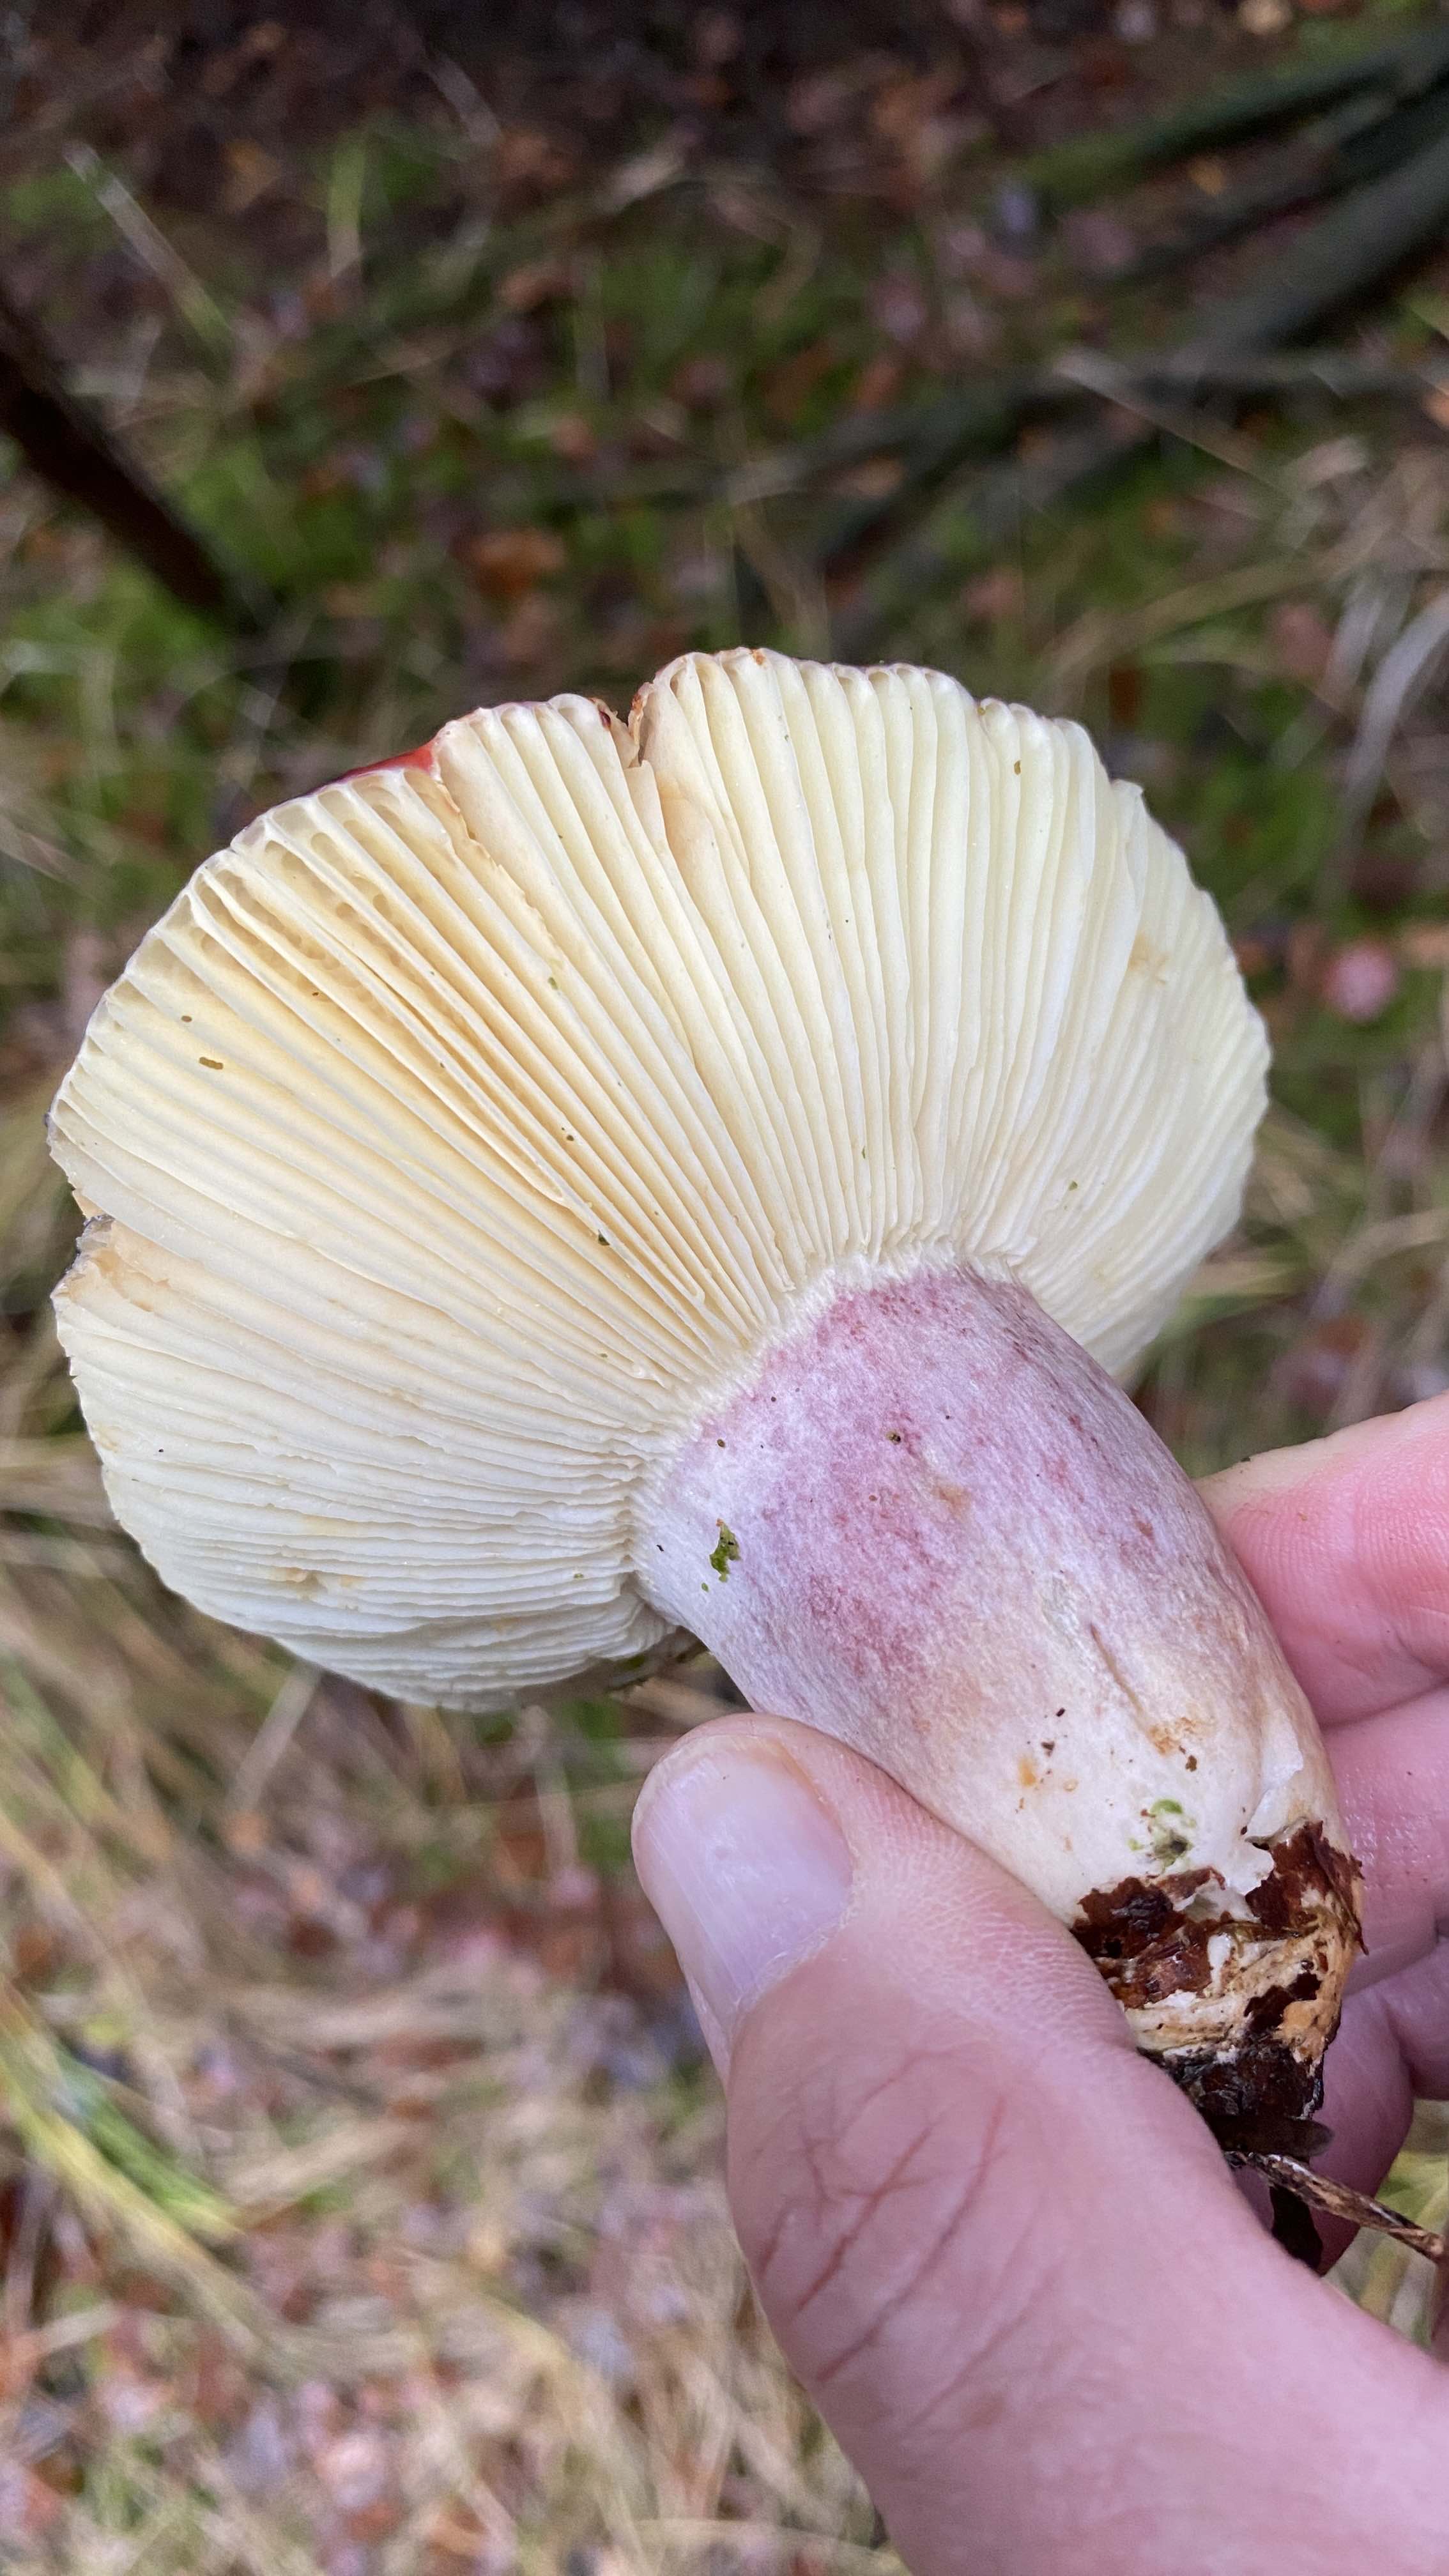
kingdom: Fungi
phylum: Basidiomycota
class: Agaricomycetes
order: Russulales
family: Russulaceae
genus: Russula
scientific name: Russula
